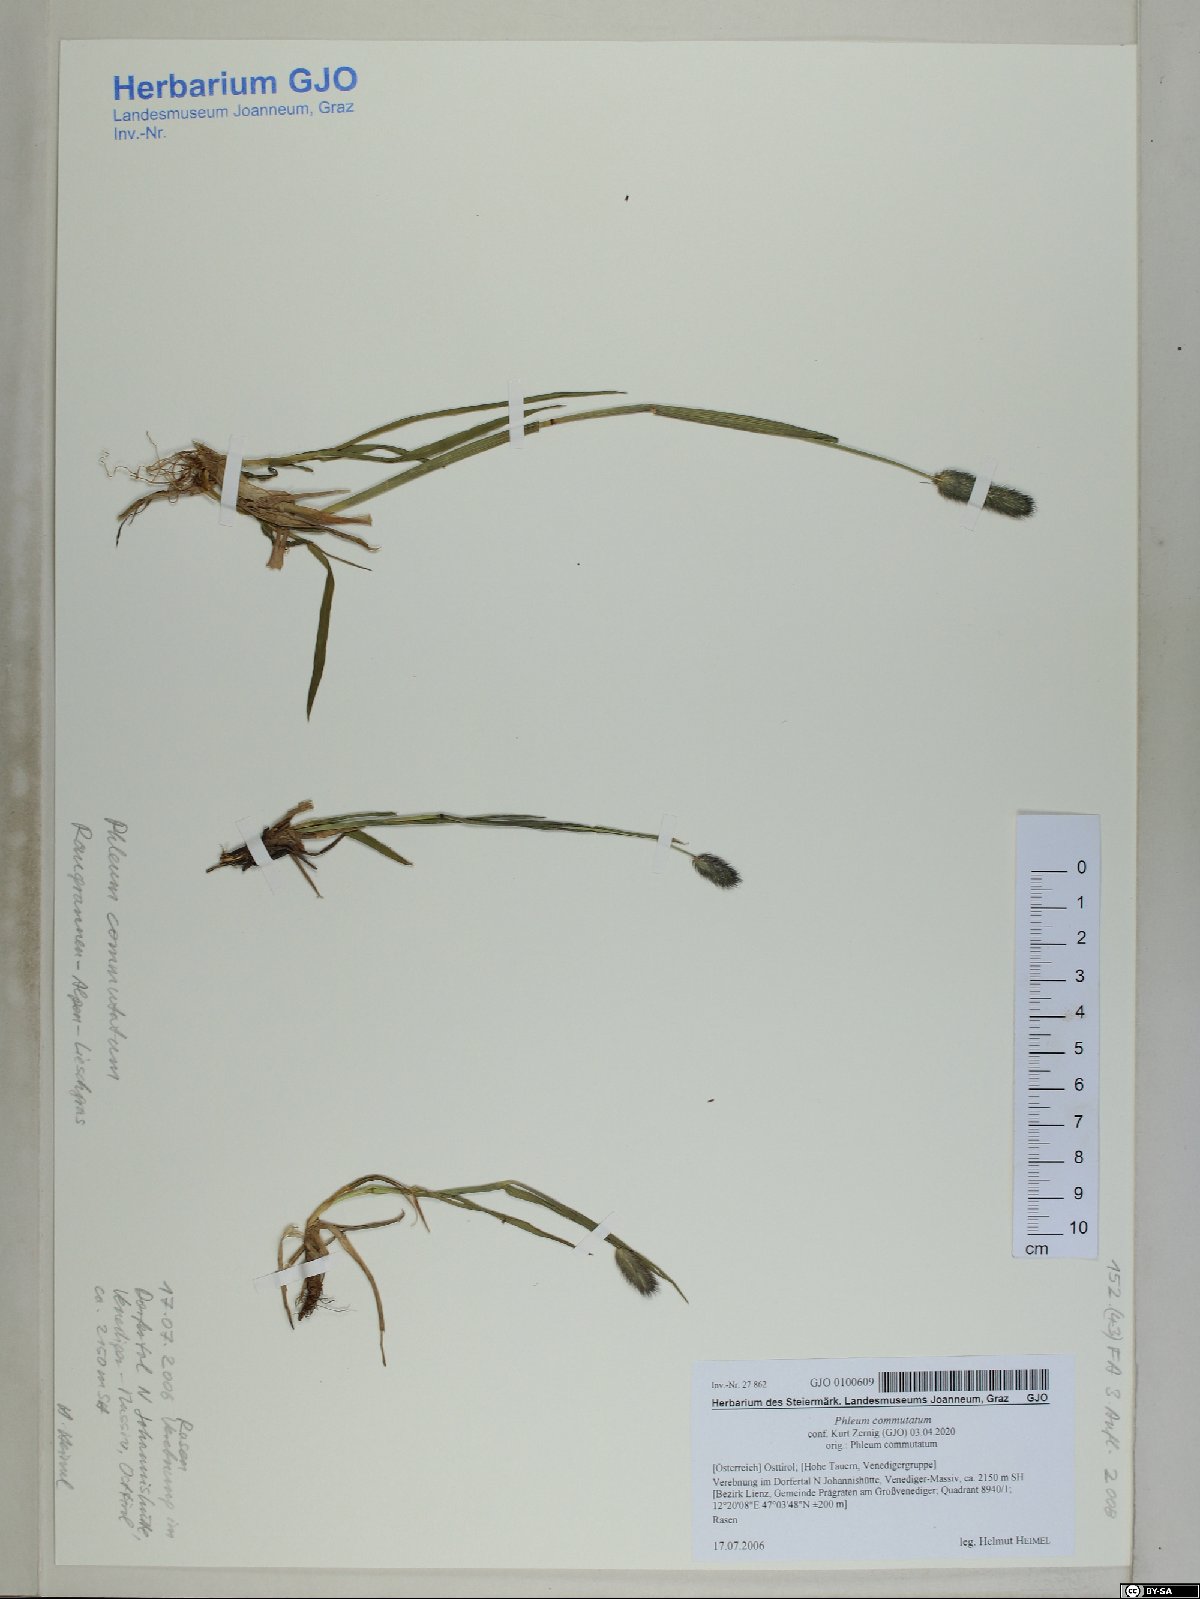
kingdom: Plantae
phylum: Tracheophyta
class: Liliopsida
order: Poales
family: Poaceae
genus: Phleum
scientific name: Phleum alpinum
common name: Alpine cat's-tail
